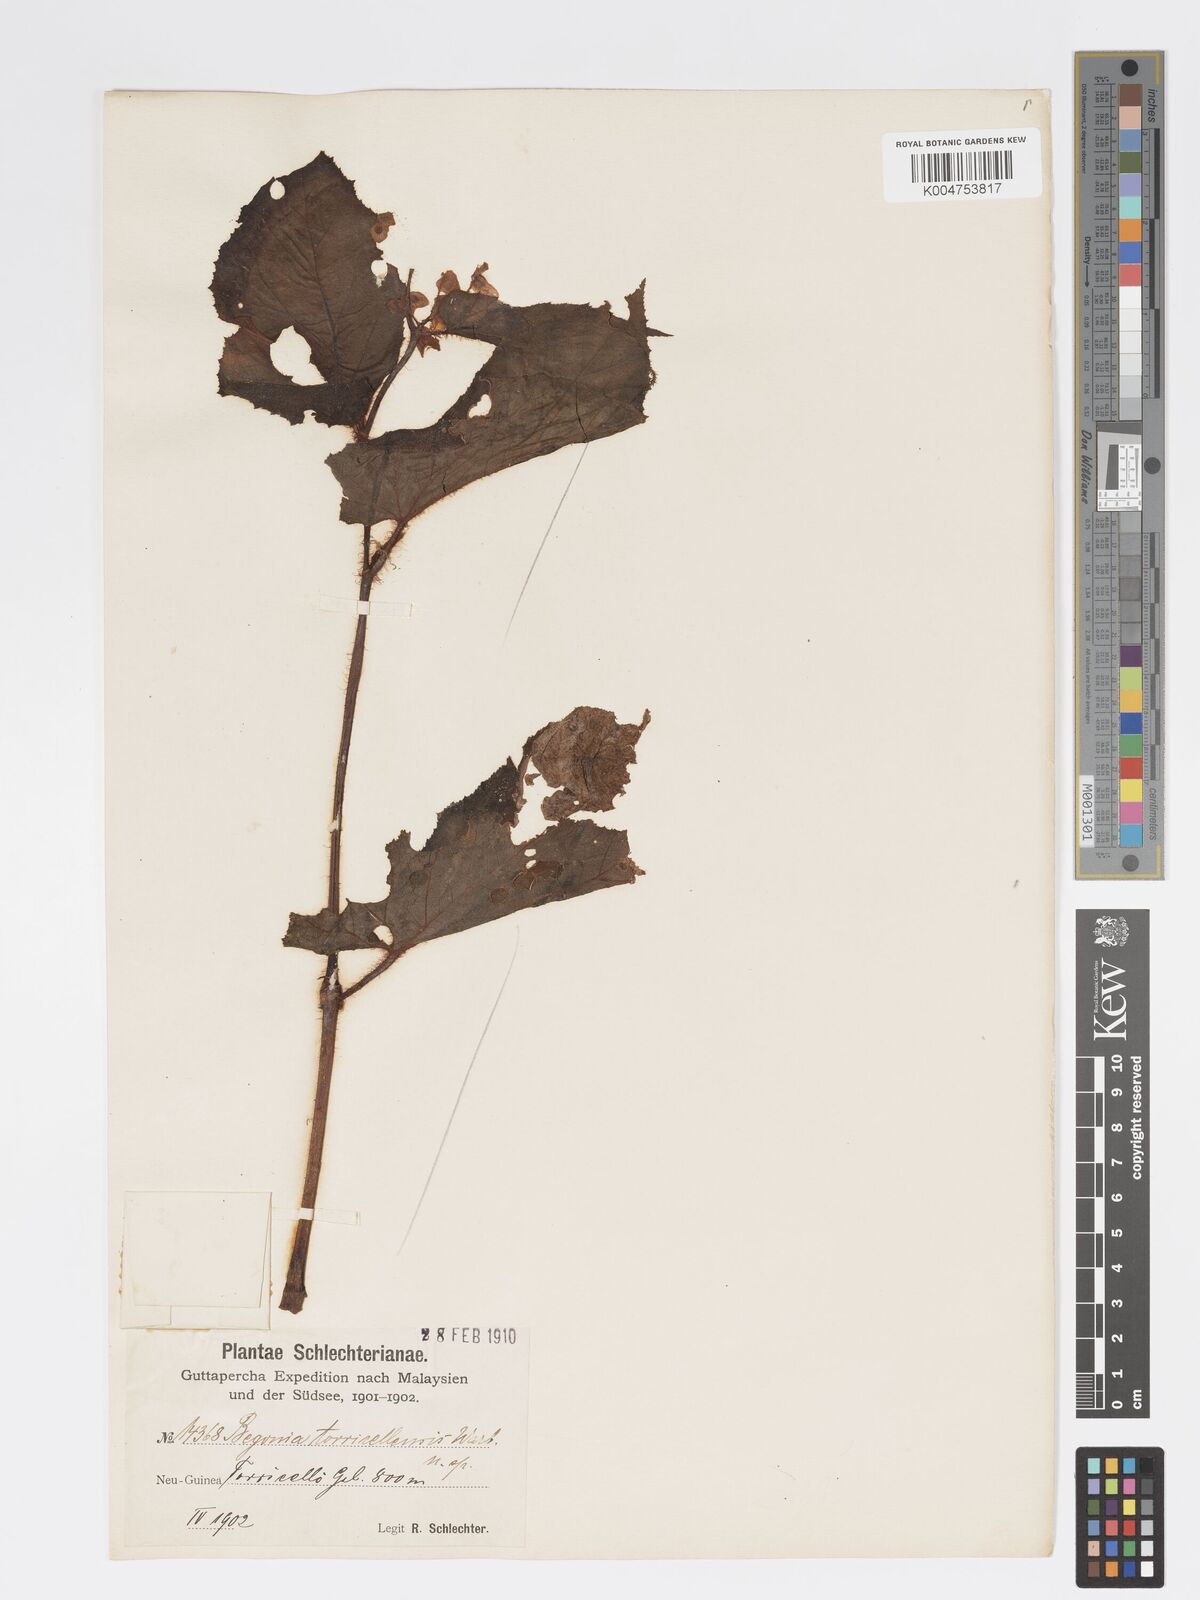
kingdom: Plantae
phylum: Tracheophyta
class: Magnoliopsida
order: Cucurbitales
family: Begoniaceae
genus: Begonia
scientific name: Begonia torricellensis
